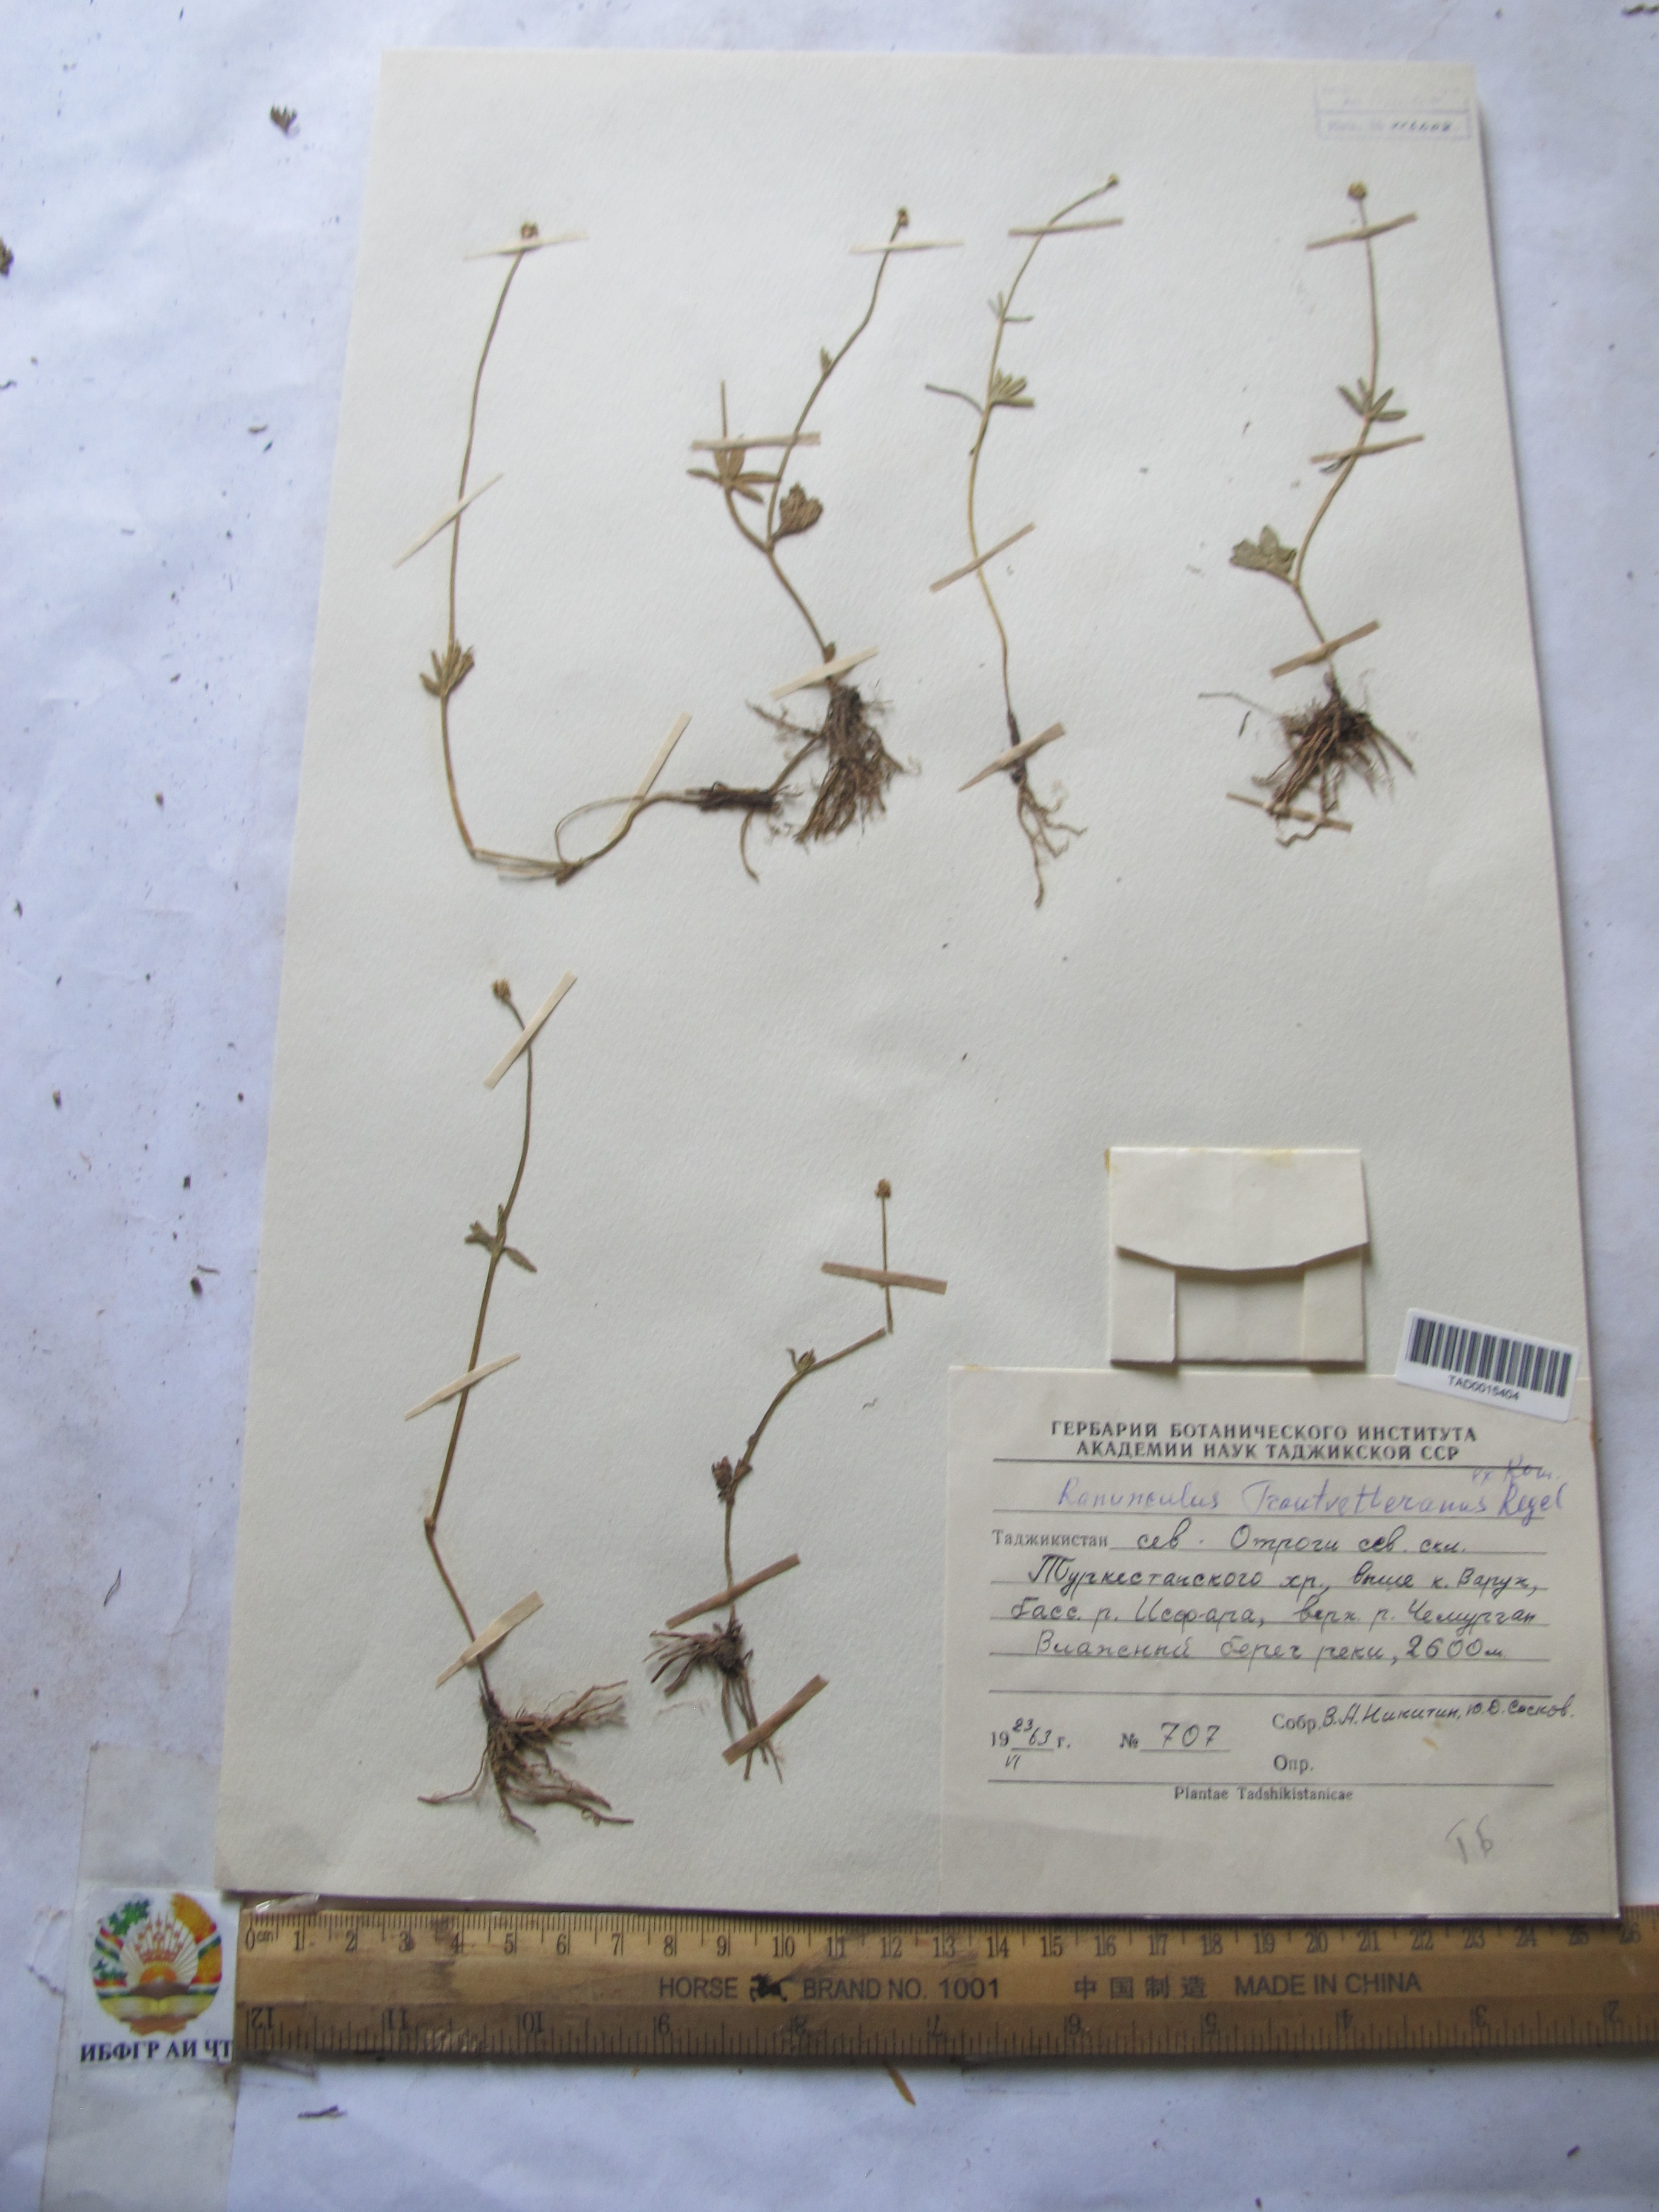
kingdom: Plantae
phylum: Tracheophyta
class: Magnoliopsida
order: Ranunculales
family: Ranunculaceae
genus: Ranunculus
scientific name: Ranunculus songaricus
